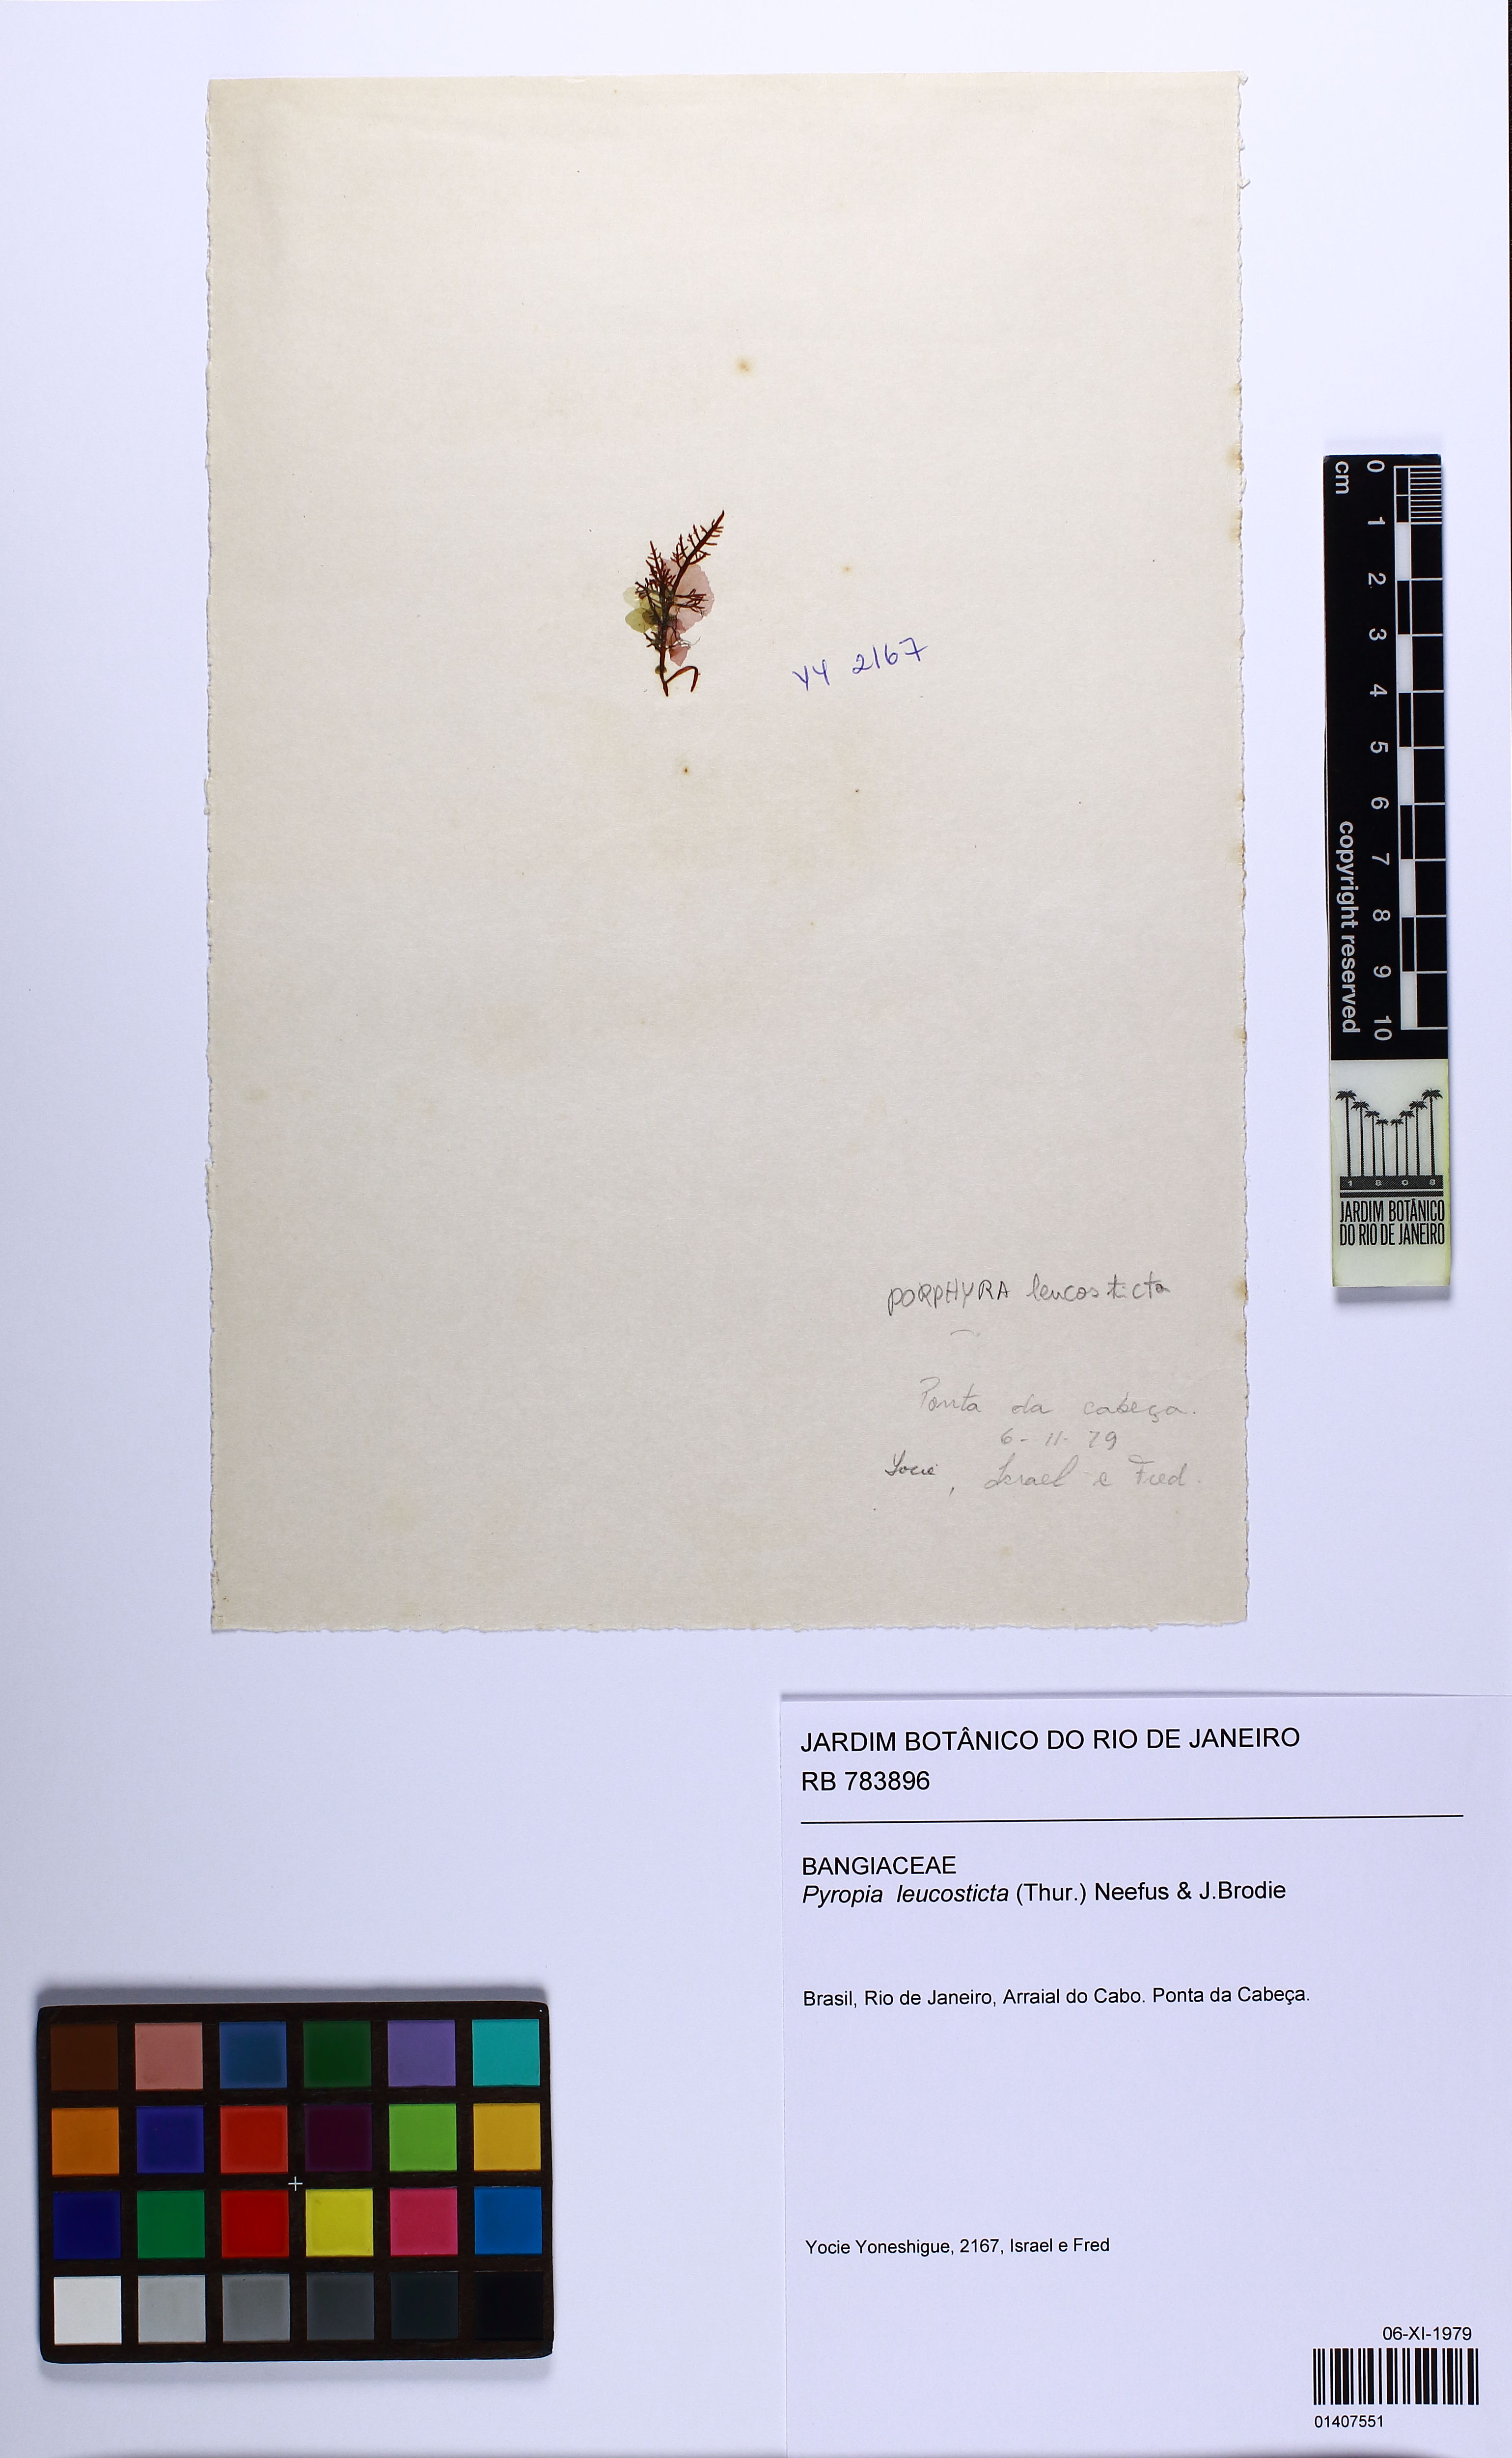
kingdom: Plantae
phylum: Rhodophyta
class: Bangiophyceae
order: Bangiales
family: Bangiaceae
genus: Neopyropia
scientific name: Neopyropia spec
